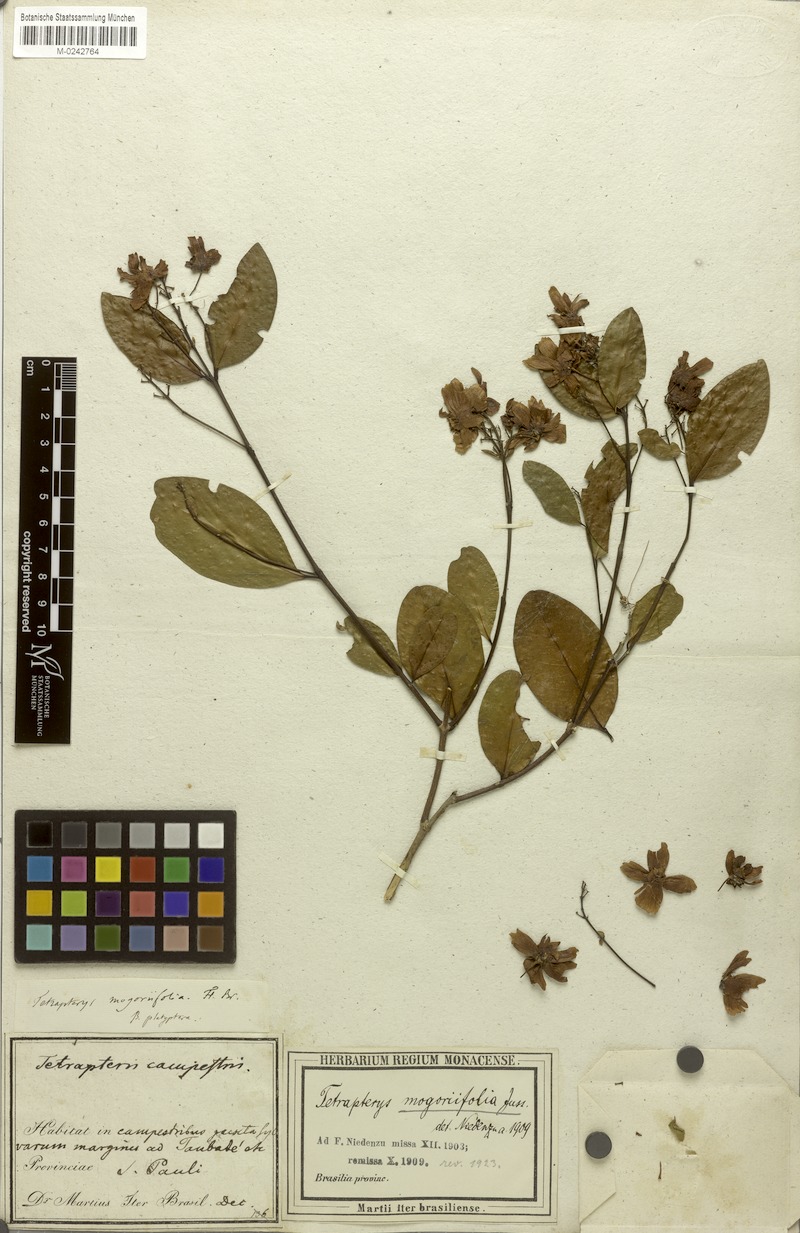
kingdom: Plantae
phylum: Tracheophyta
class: Magnoliopsida
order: Malpighiales
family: Malpighiaceae
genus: Niedenzuella
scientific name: Niedenzuella mogoriifolia
